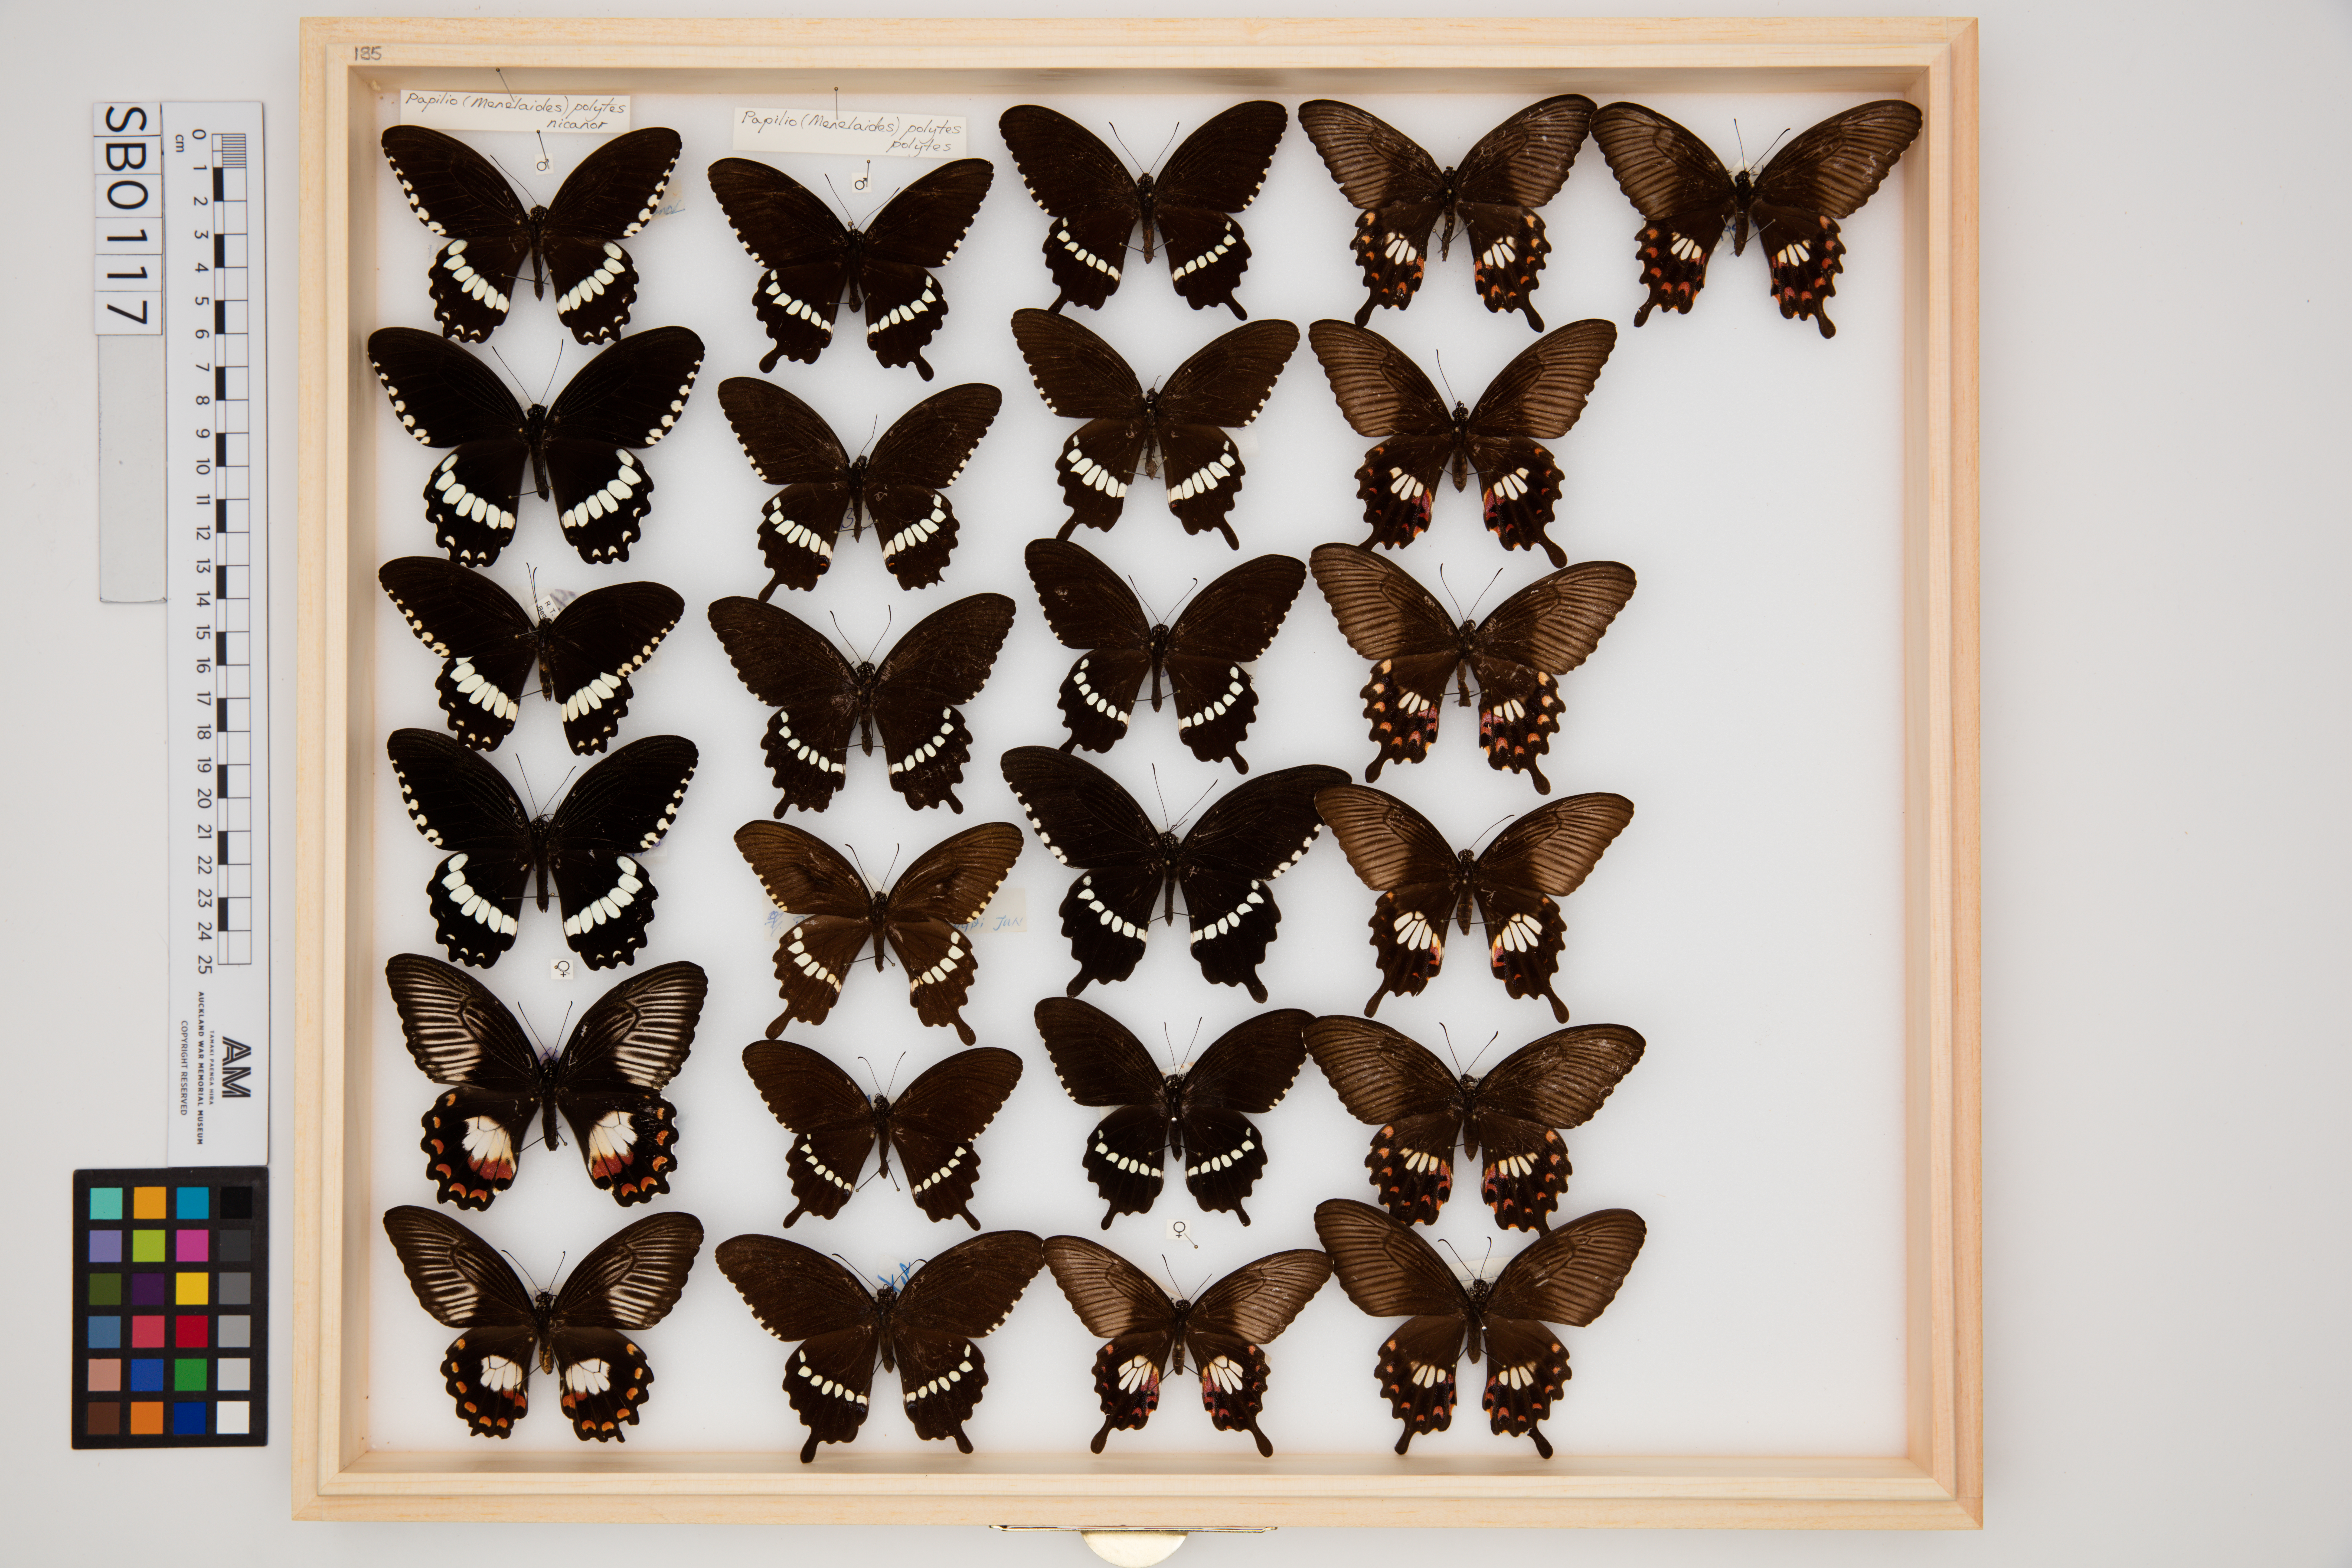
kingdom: Animalia
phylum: Arthropoda
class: Insecta
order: Lepidoptera
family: Papilionidae
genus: Papilio
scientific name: Papilio polytes
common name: Common mormon
